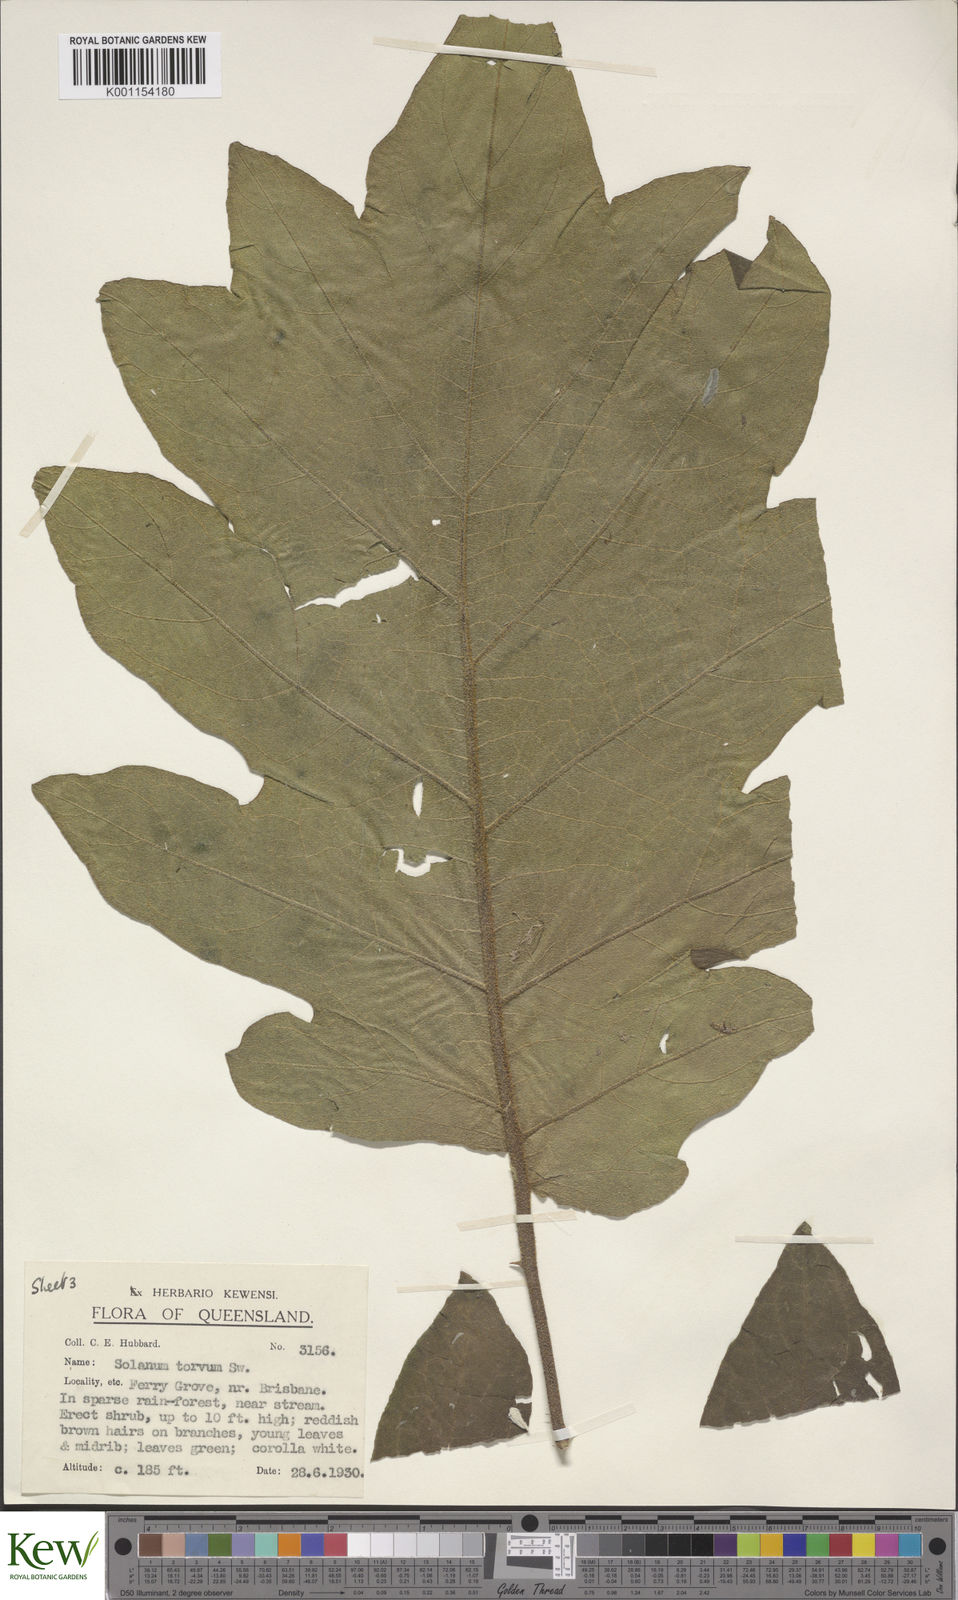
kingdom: Plantae
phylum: Tracheophyta
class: Magnoliopsida
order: Solanales
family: Solanaceae
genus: Solanum
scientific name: Solanum asperolanatum
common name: Devil's-fig
